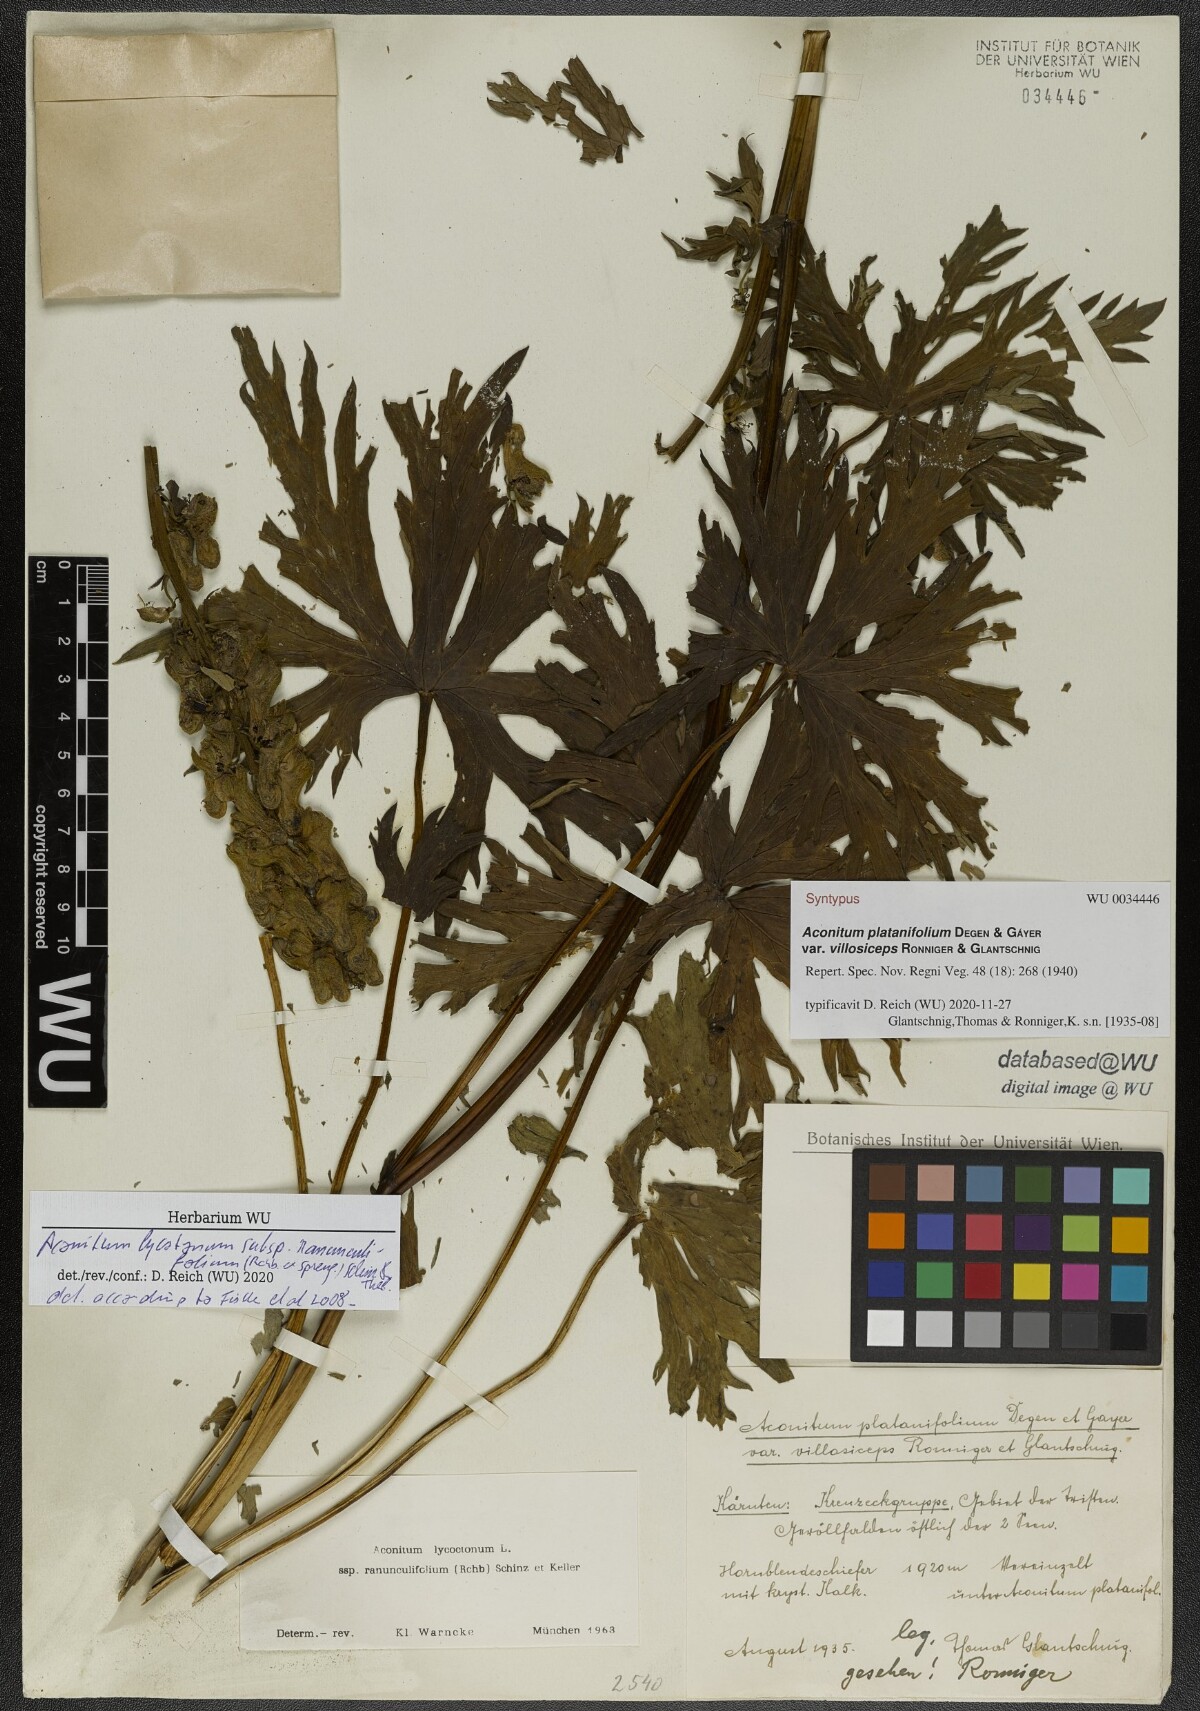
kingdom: Plantae
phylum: Tracheophyta
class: Magnoliopsida
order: Ranunculales
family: Ranunculaceae
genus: Aconitum
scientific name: Aconitum lycoctonum
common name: Wolf's-bane
